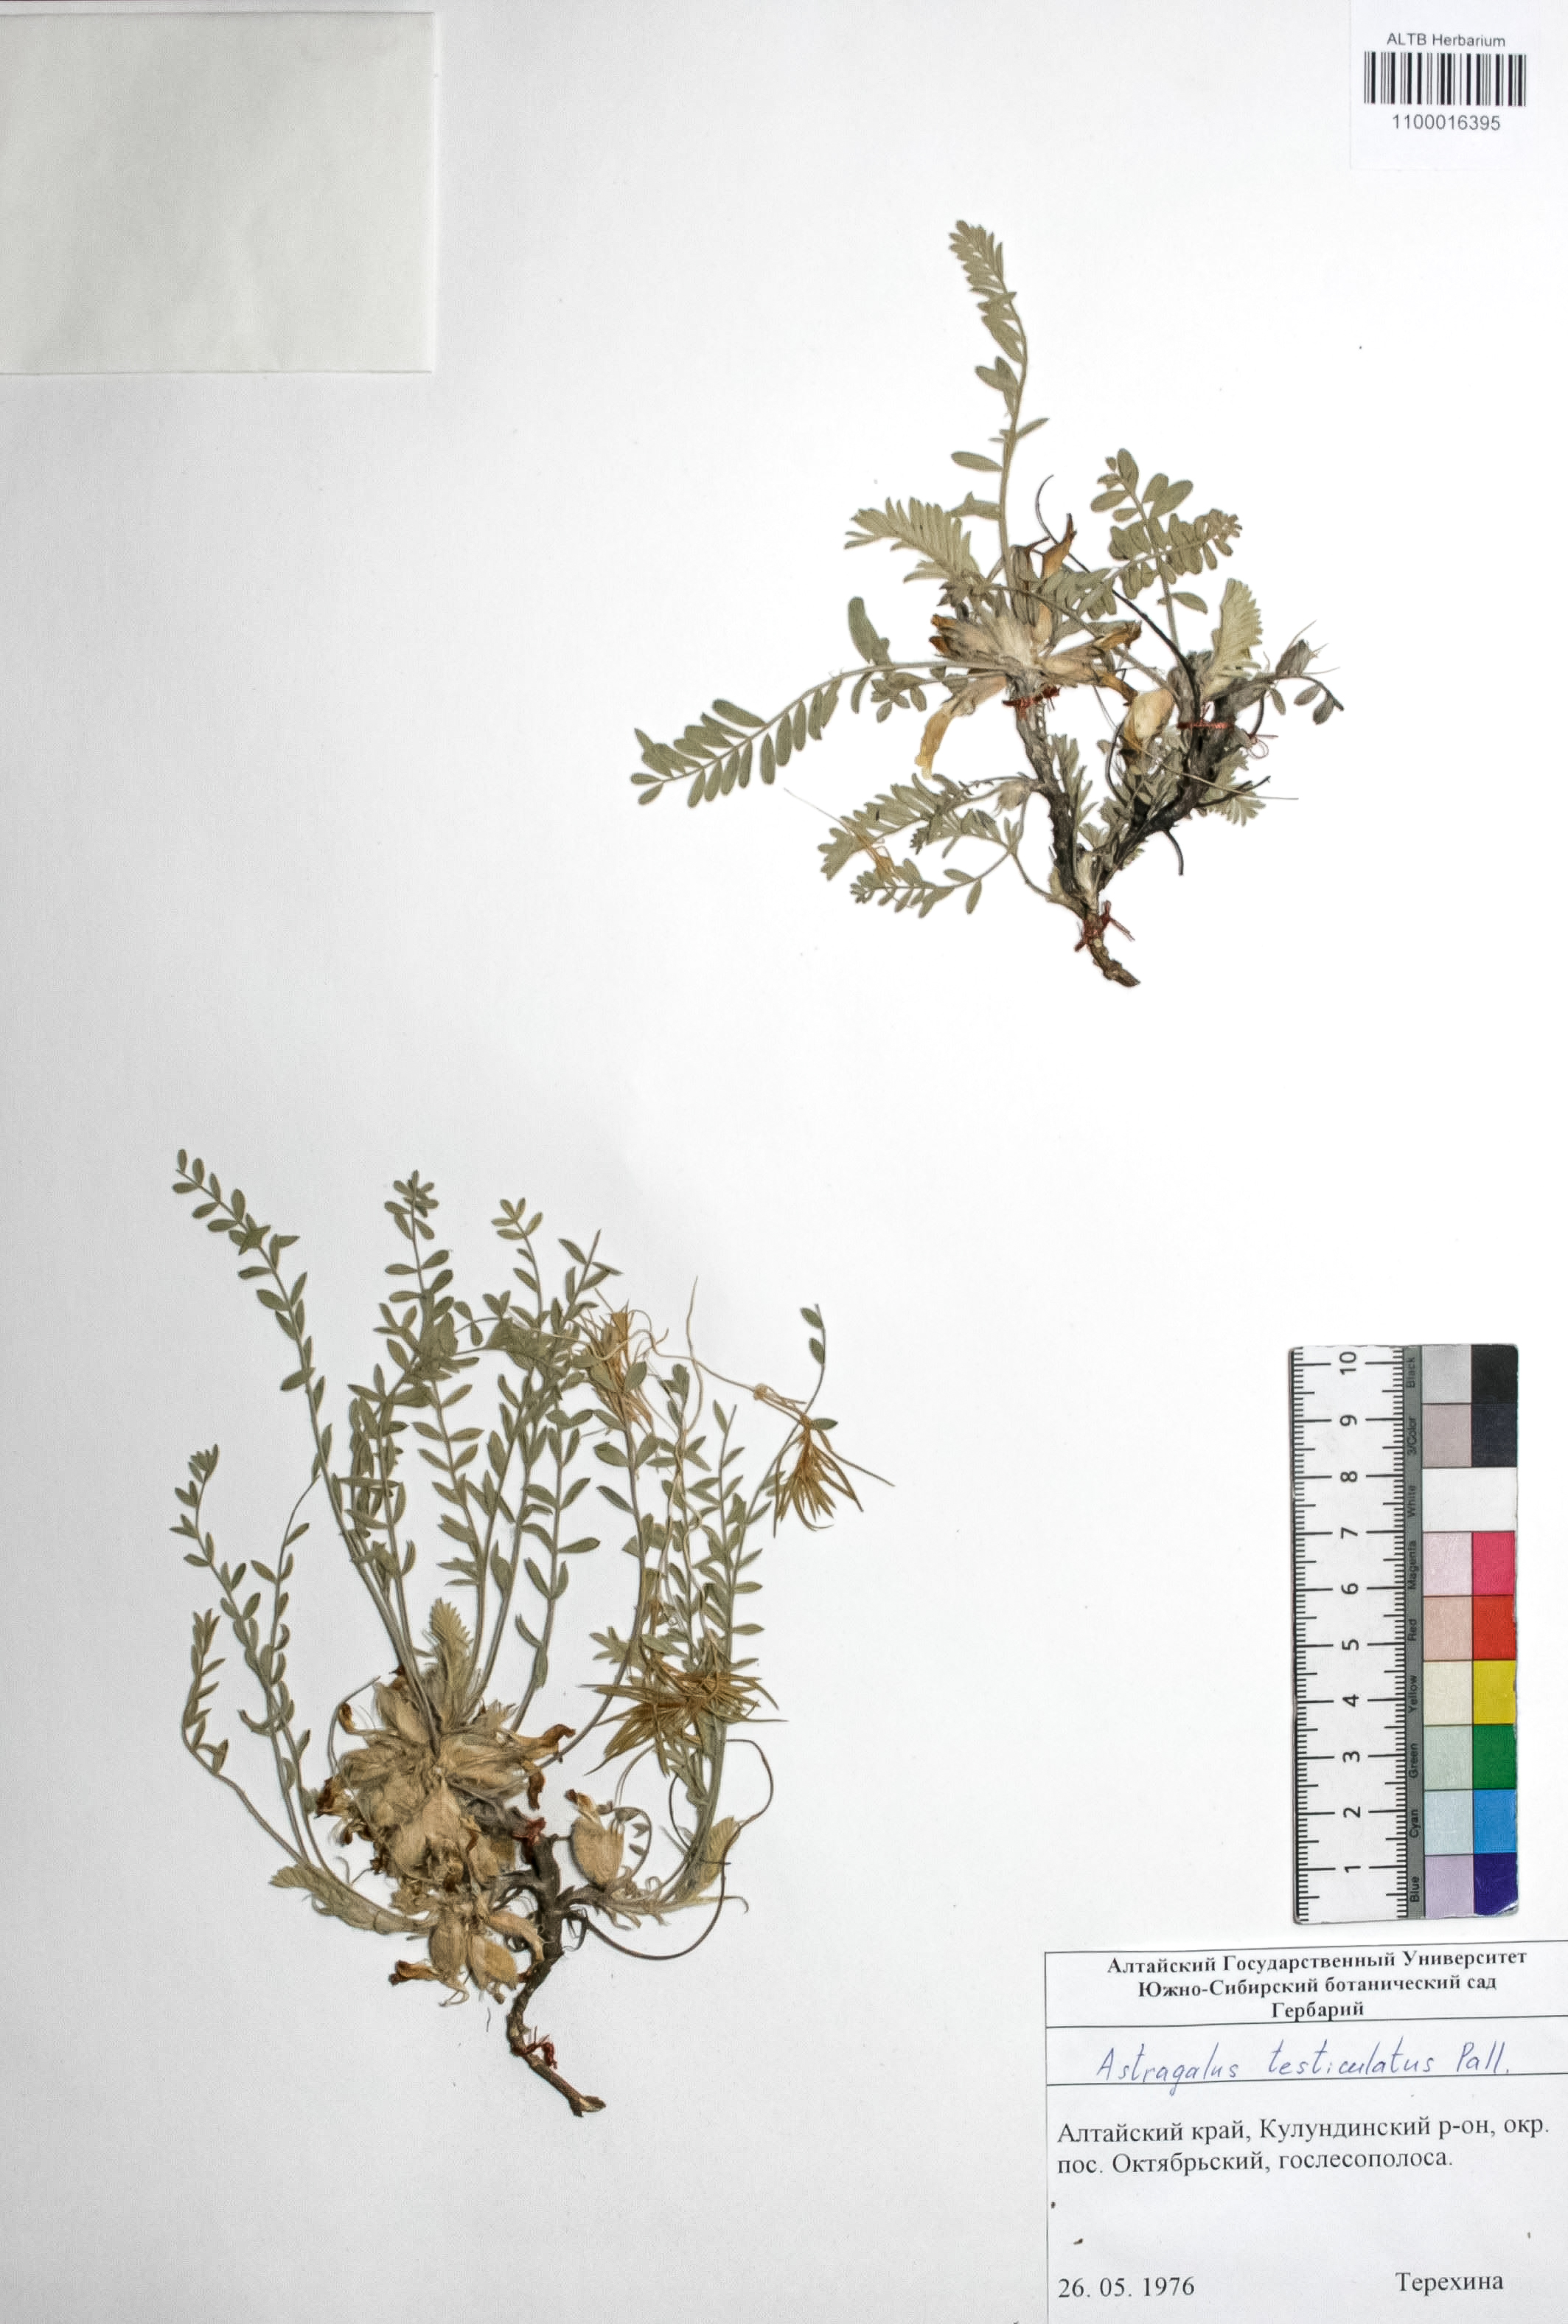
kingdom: Plantae
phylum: Tracheophyta
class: Magnoliopsida
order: Fabales
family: Fabaceae
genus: Astragalus
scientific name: Astragalus testiculatus
